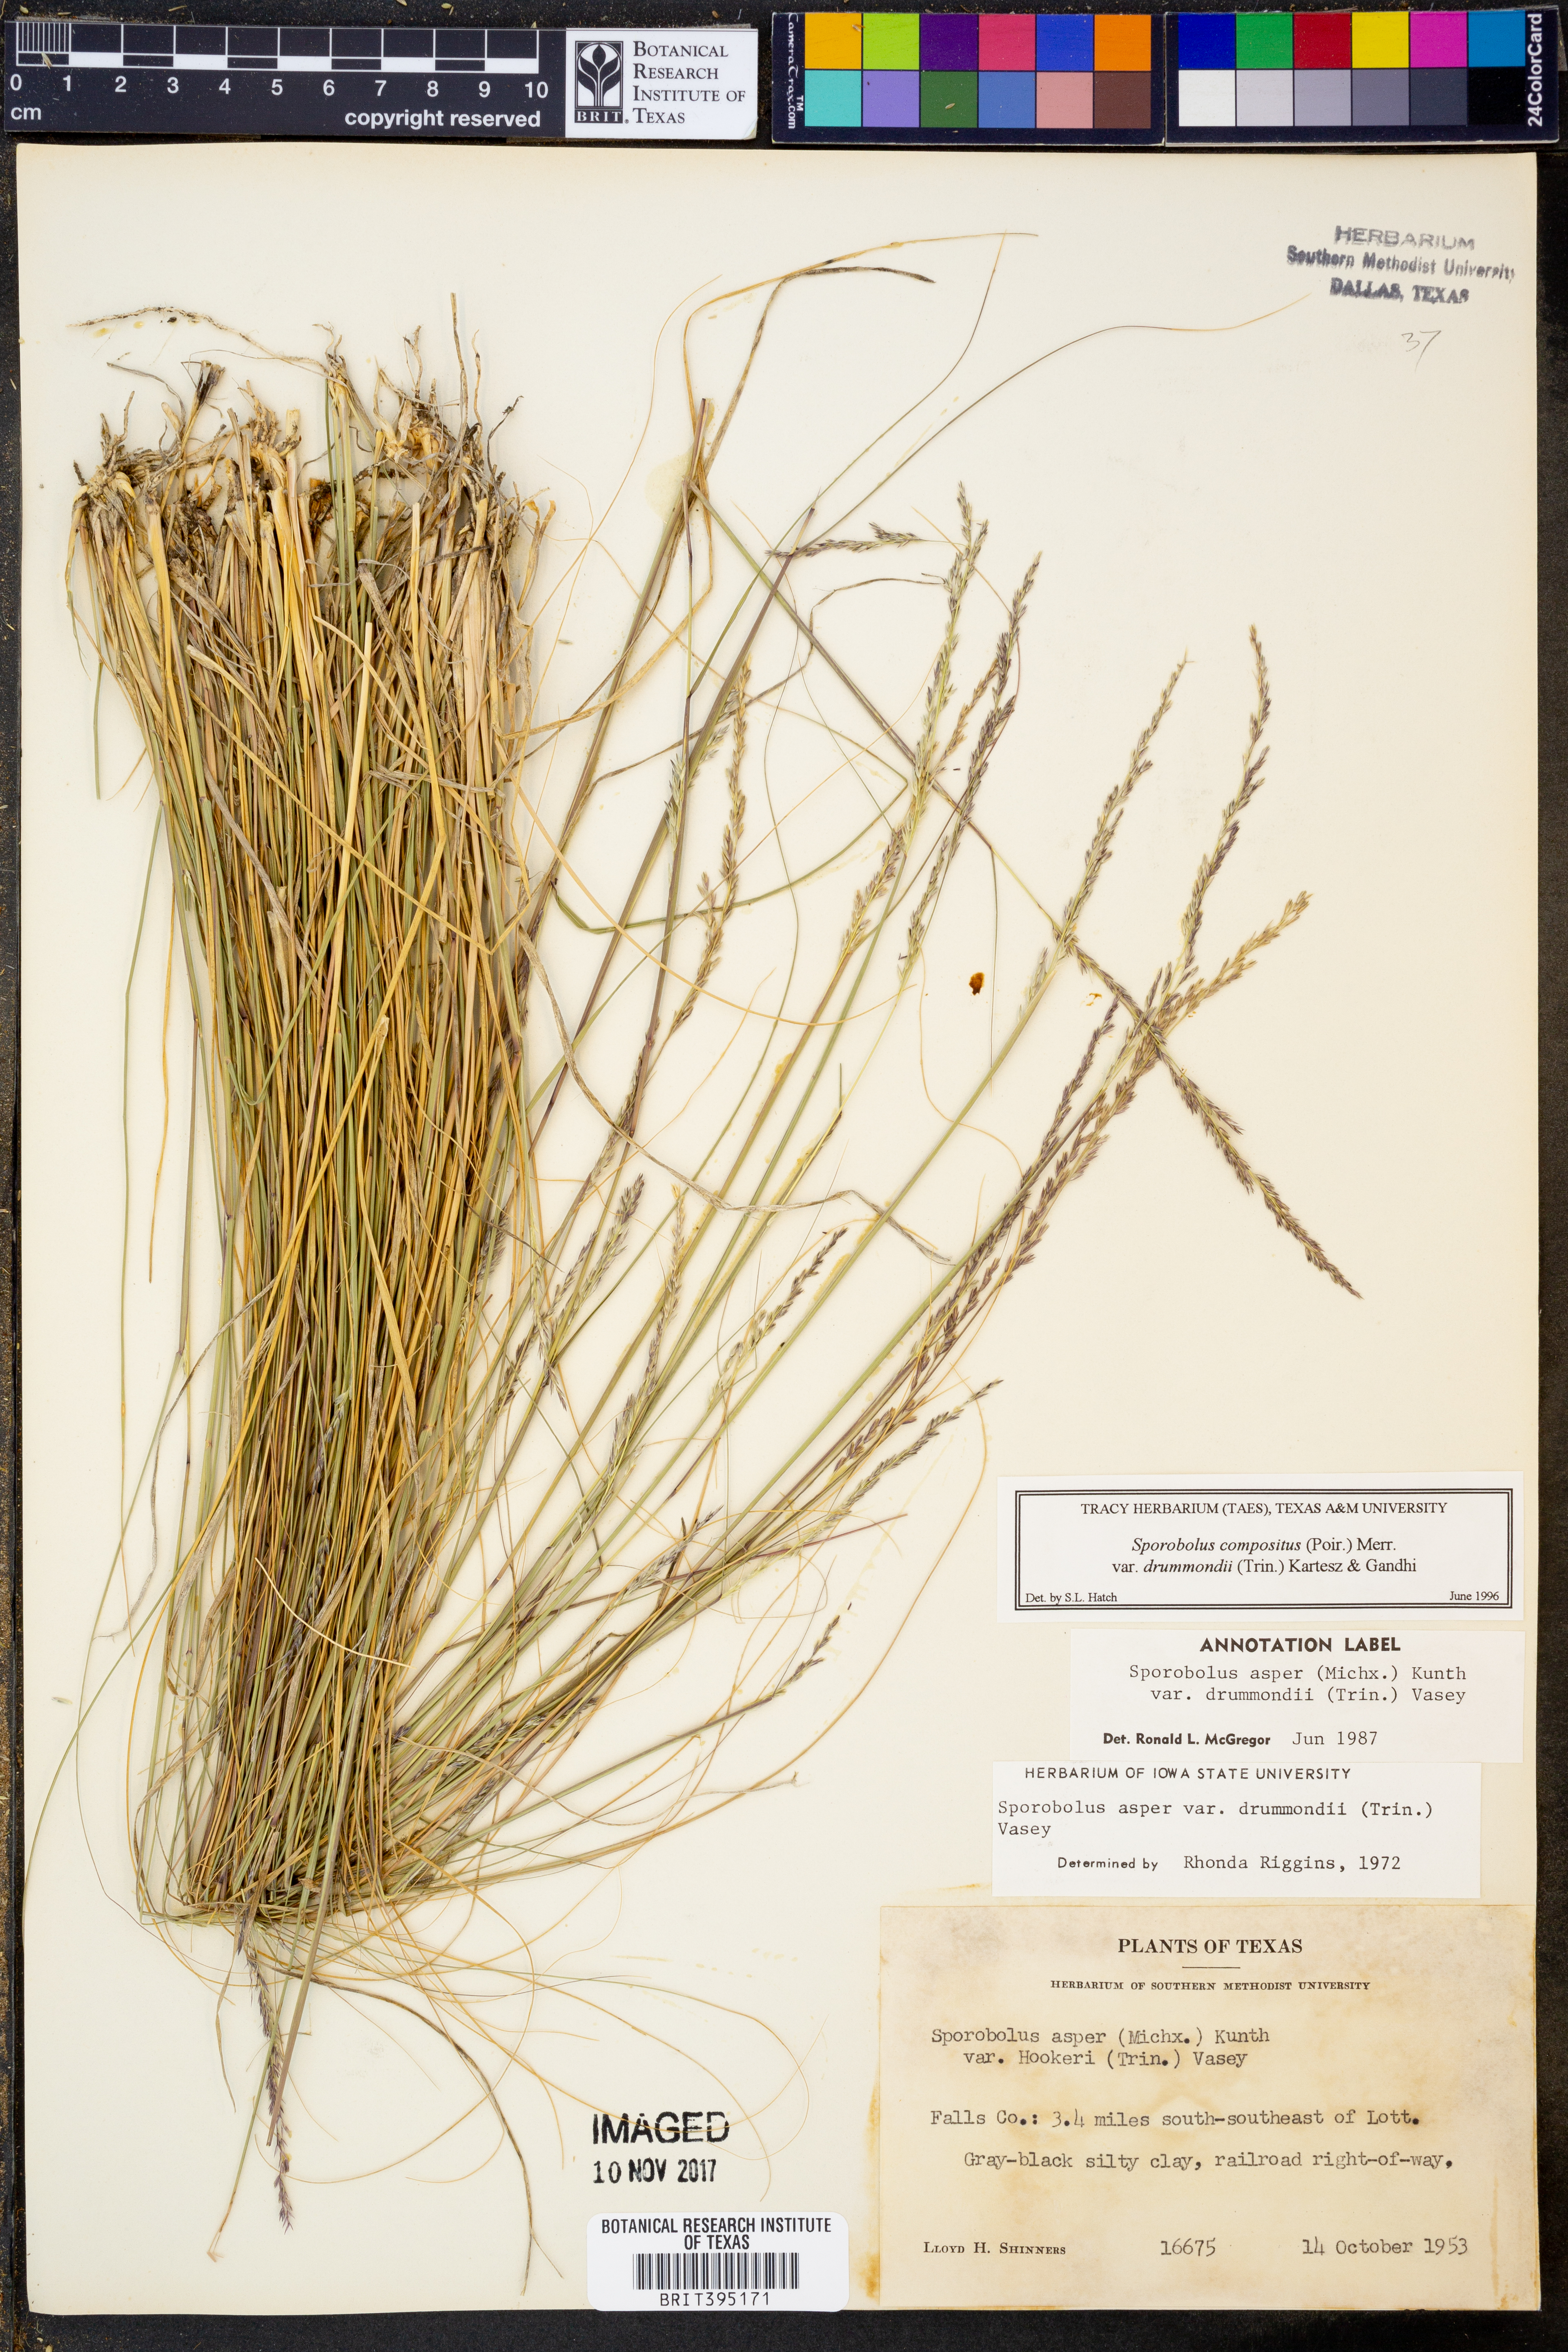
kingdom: Plantae
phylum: Tracheophyta
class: Liliopsida
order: Poales
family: Poaceae
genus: Sporobolus
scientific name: Sporobolus compositus
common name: Rough dropseed
